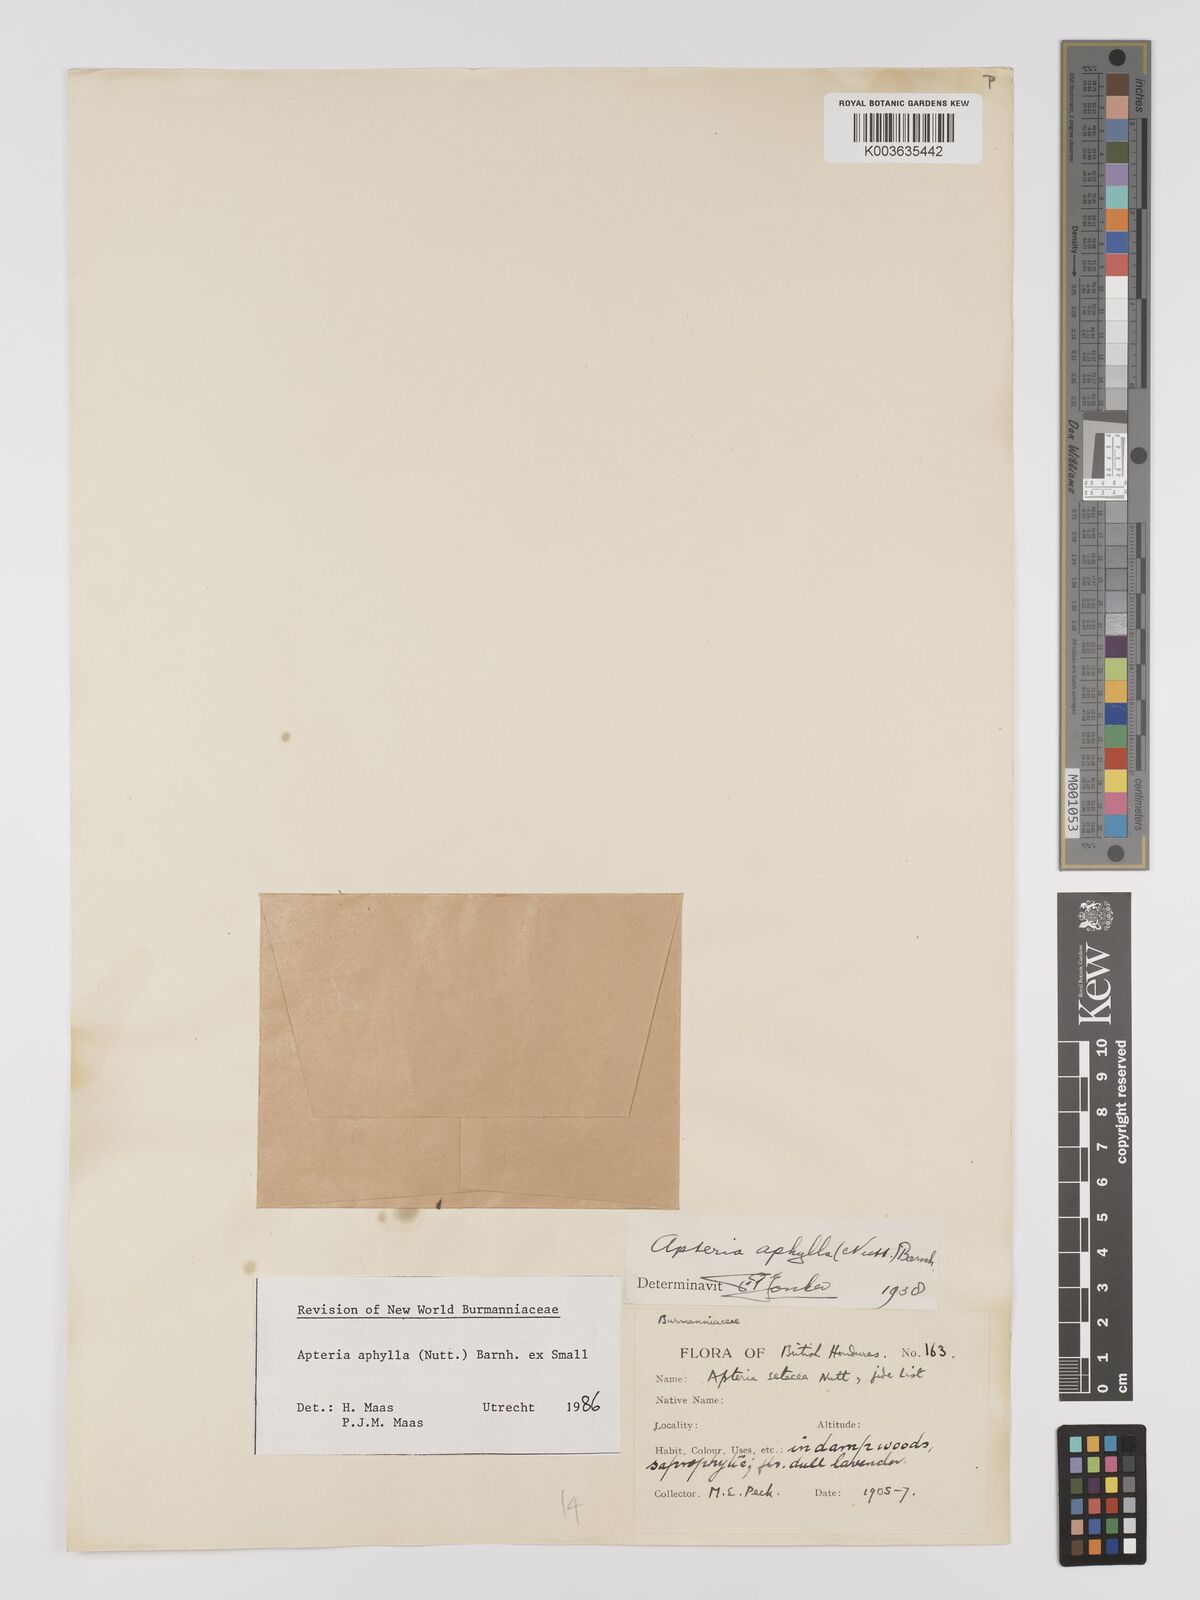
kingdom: Plantae
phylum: Tracheophyta
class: Liliopsida
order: Dioscoreales
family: Burmanniaceae
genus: Apteria
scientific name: Apteria aphylla
